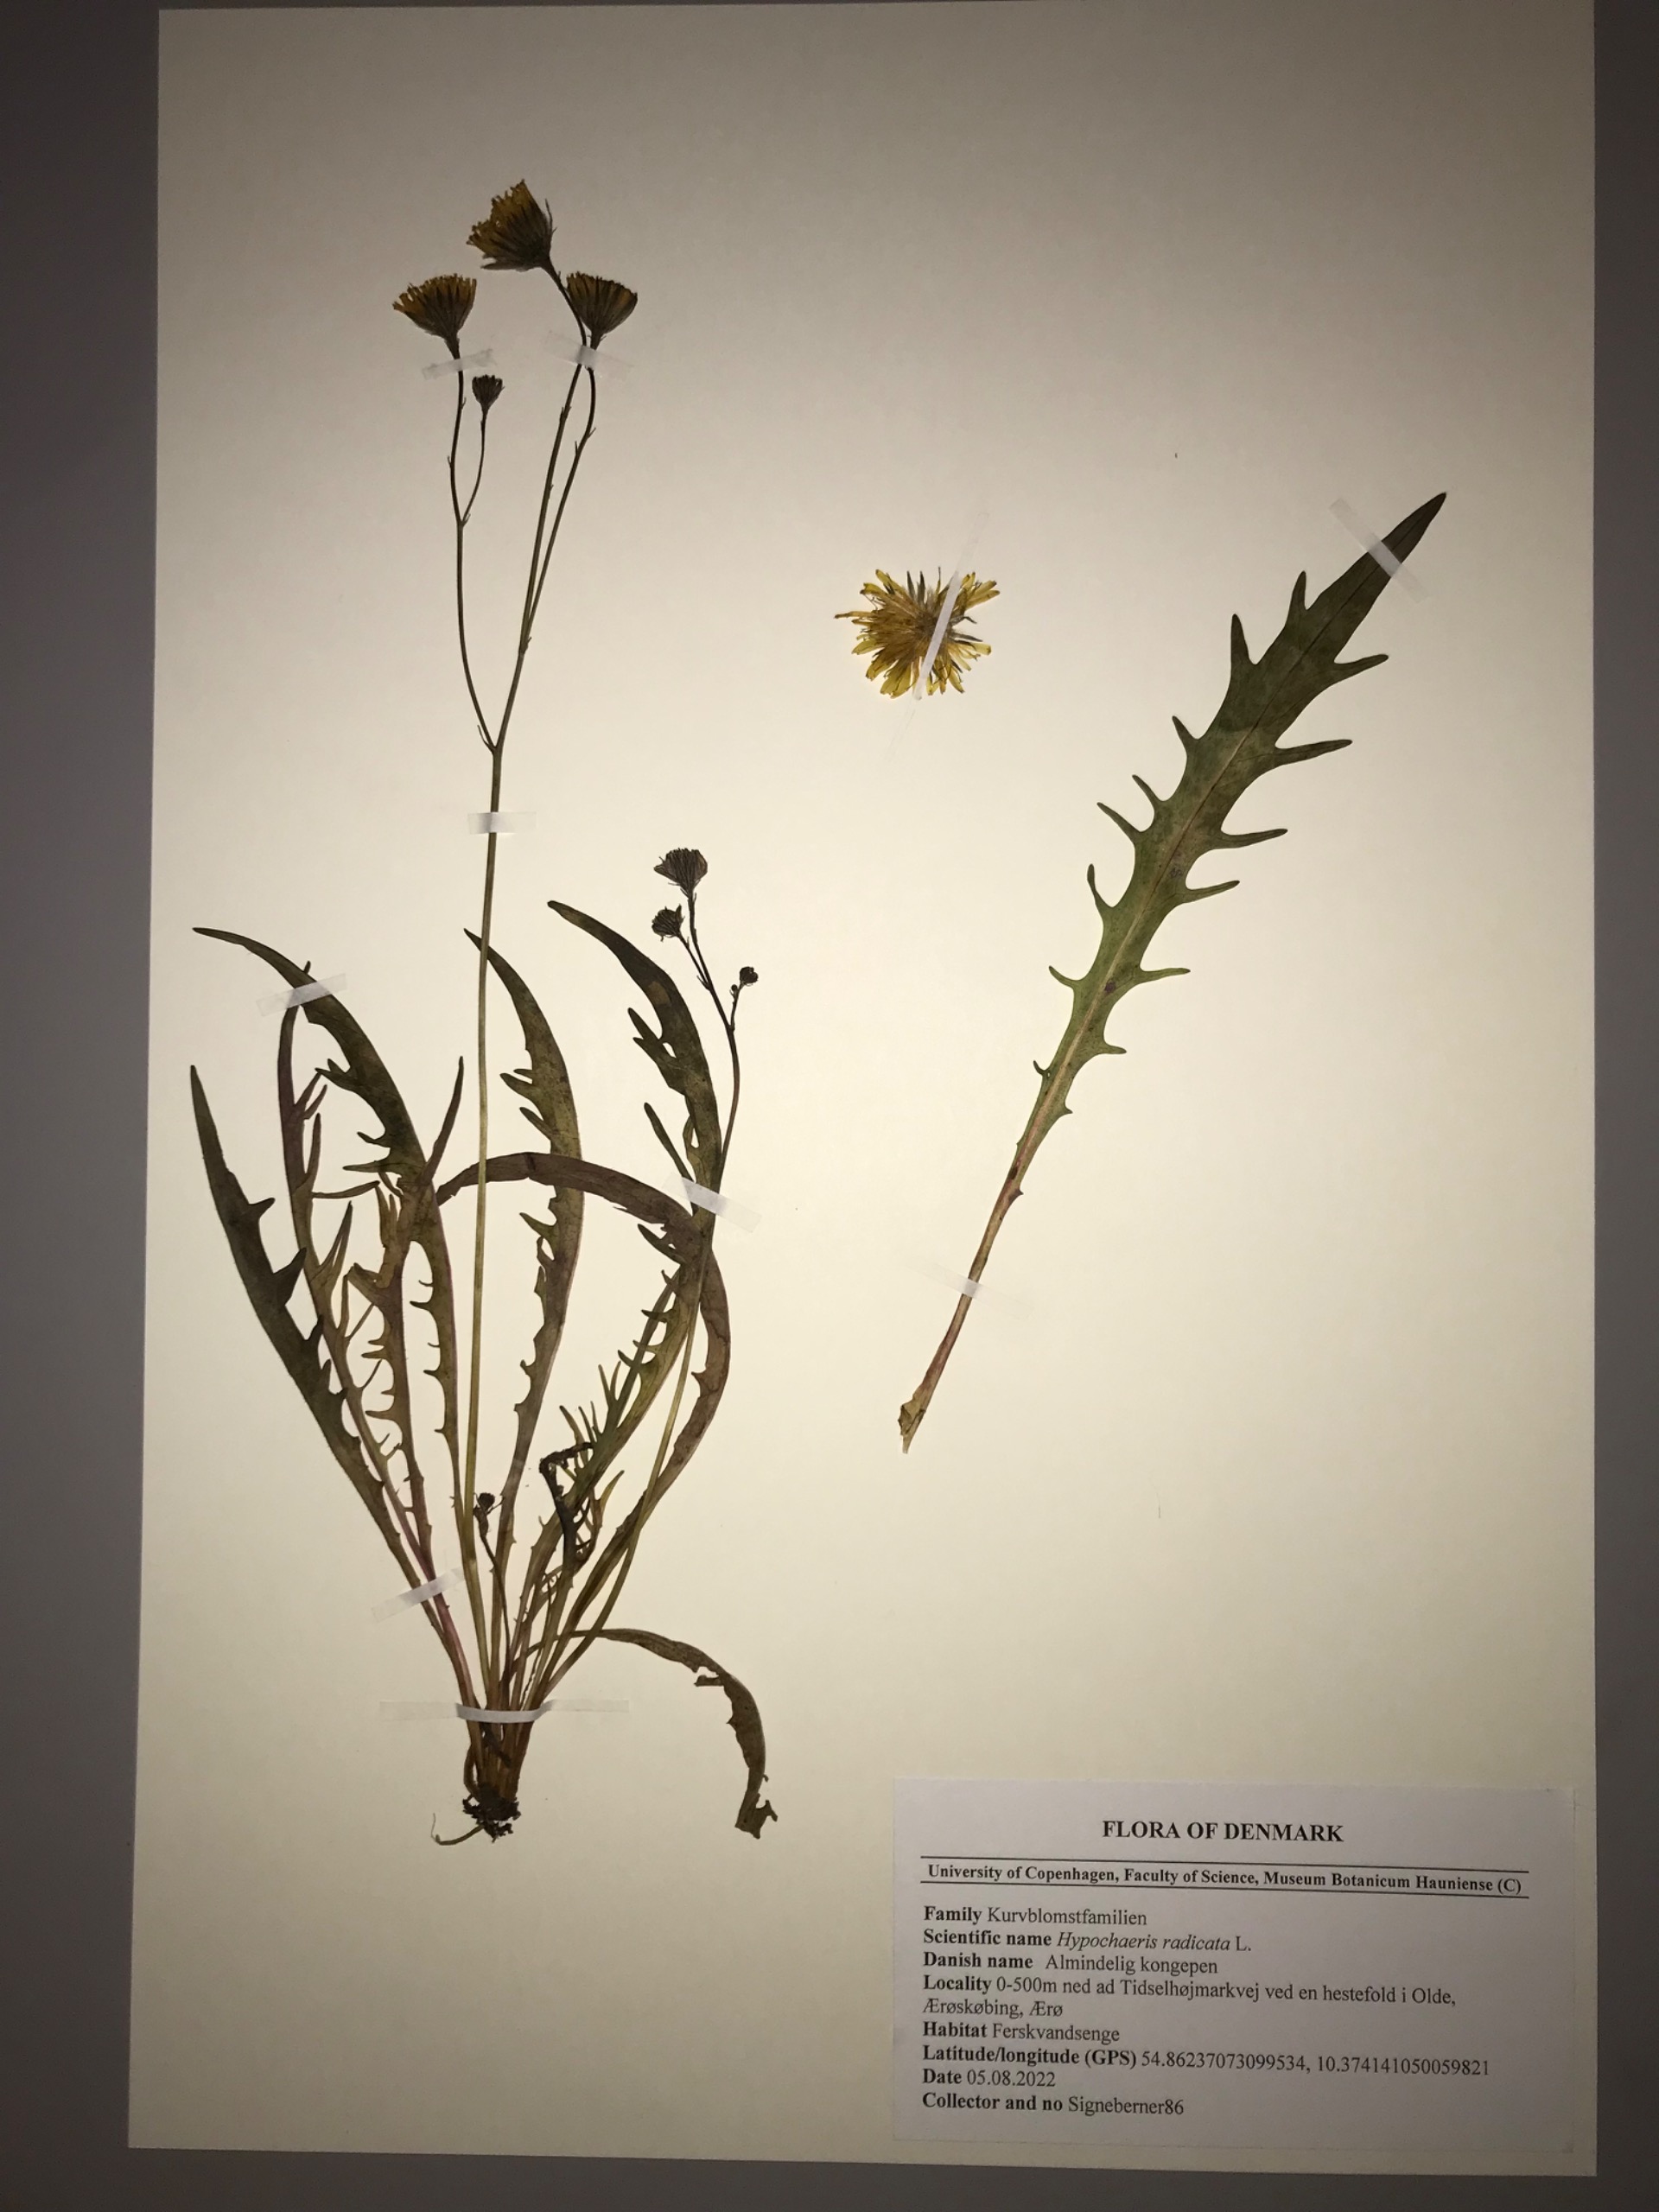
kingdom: Plantae
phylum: Tracheophyta
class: Magnoliopsida
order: Asterales
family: Asteraceae
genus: Scorzoneroides
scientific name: Scorzoneroides autumnalis
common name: Høst-borst
